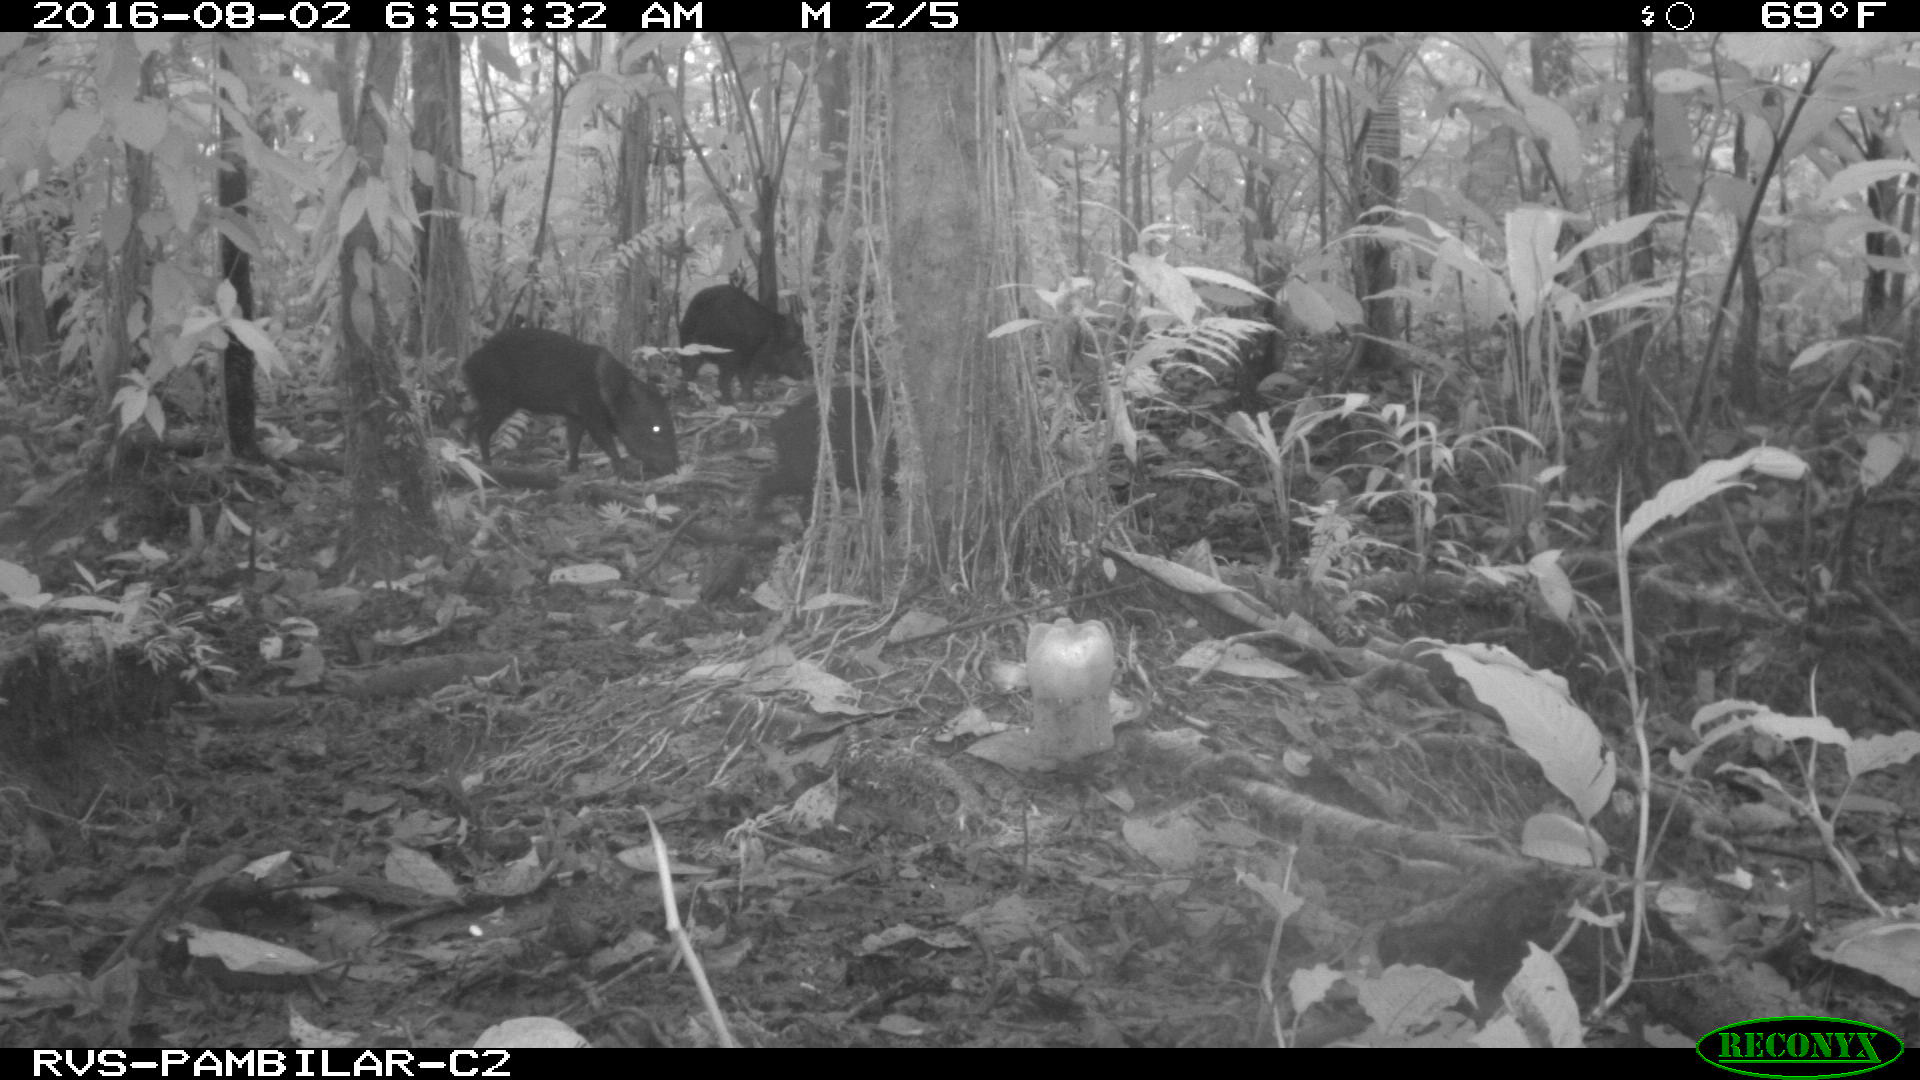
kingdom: Animalia
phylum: Chordata
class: Mammalia
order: Artiodactyla
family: Tayassuidae
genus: Pecari
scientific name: Pecari tajacu
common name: Collared peccary
